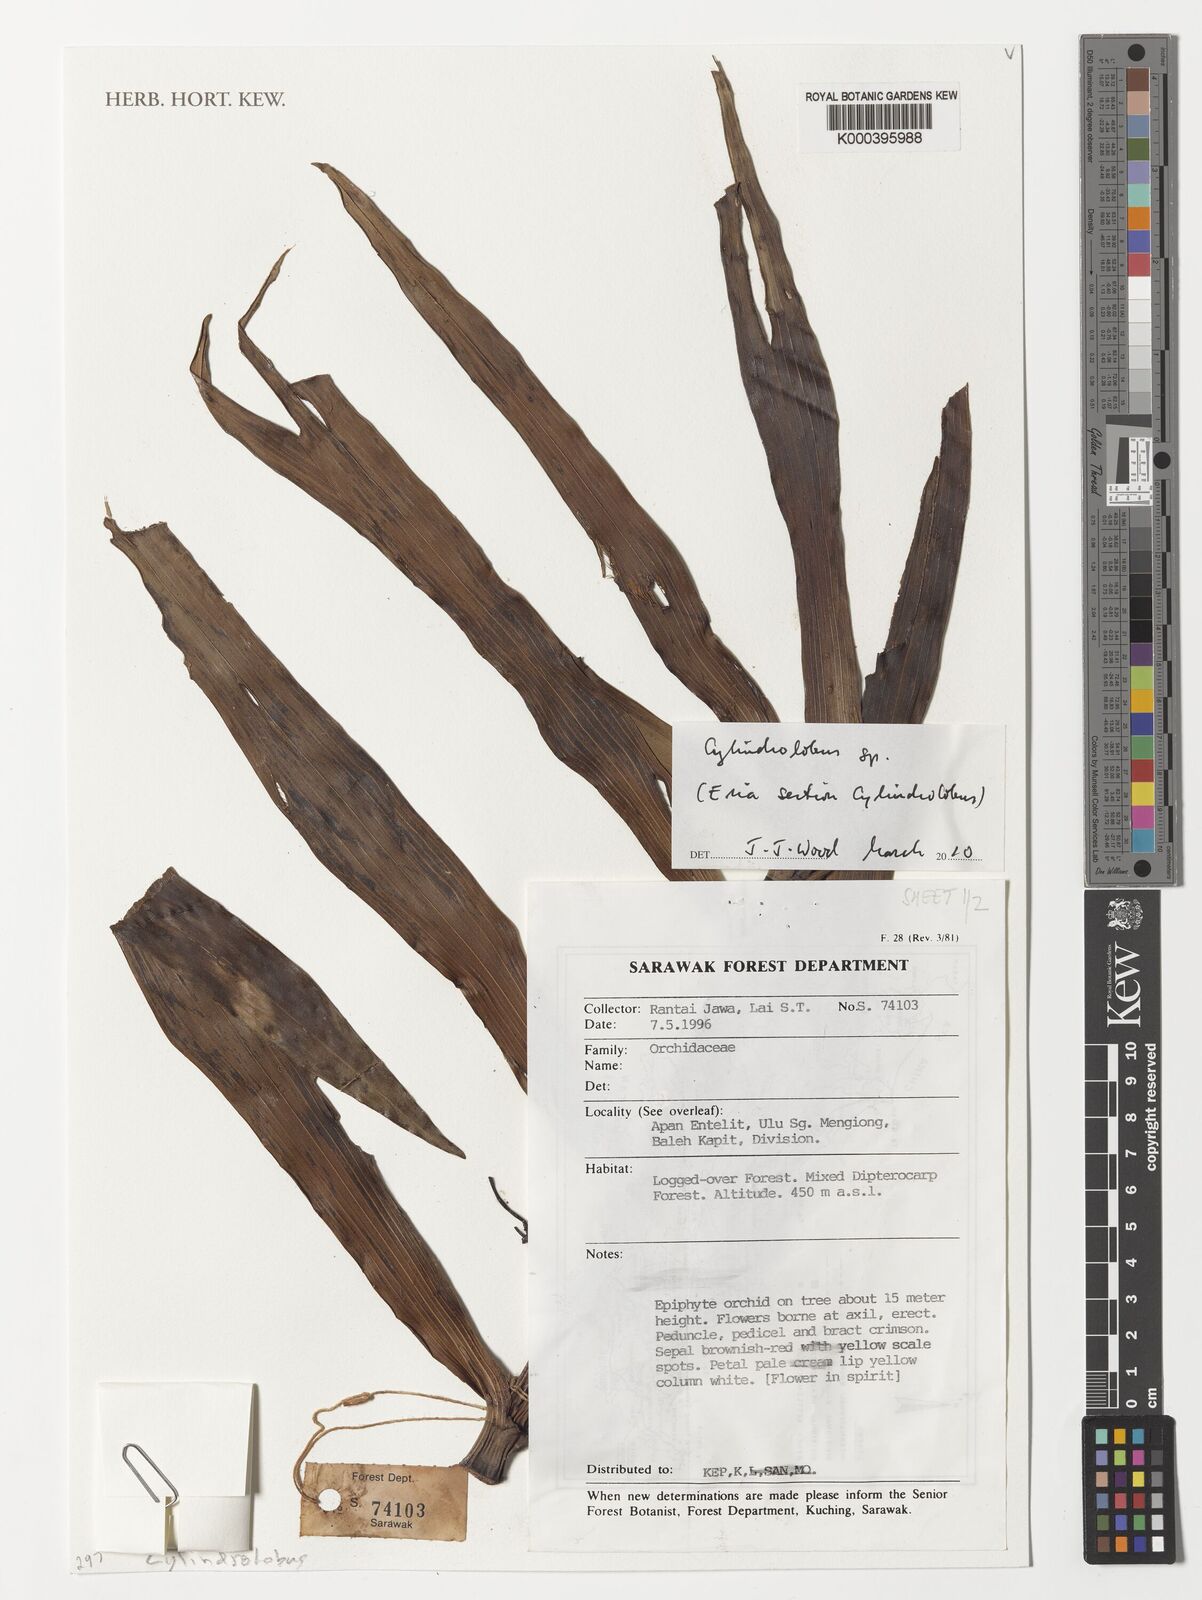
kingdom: Plantae
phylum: Tracheophyta
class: Liliopsida
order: Asparagales
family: Orchidaceae
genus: Eria
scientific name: Eria
